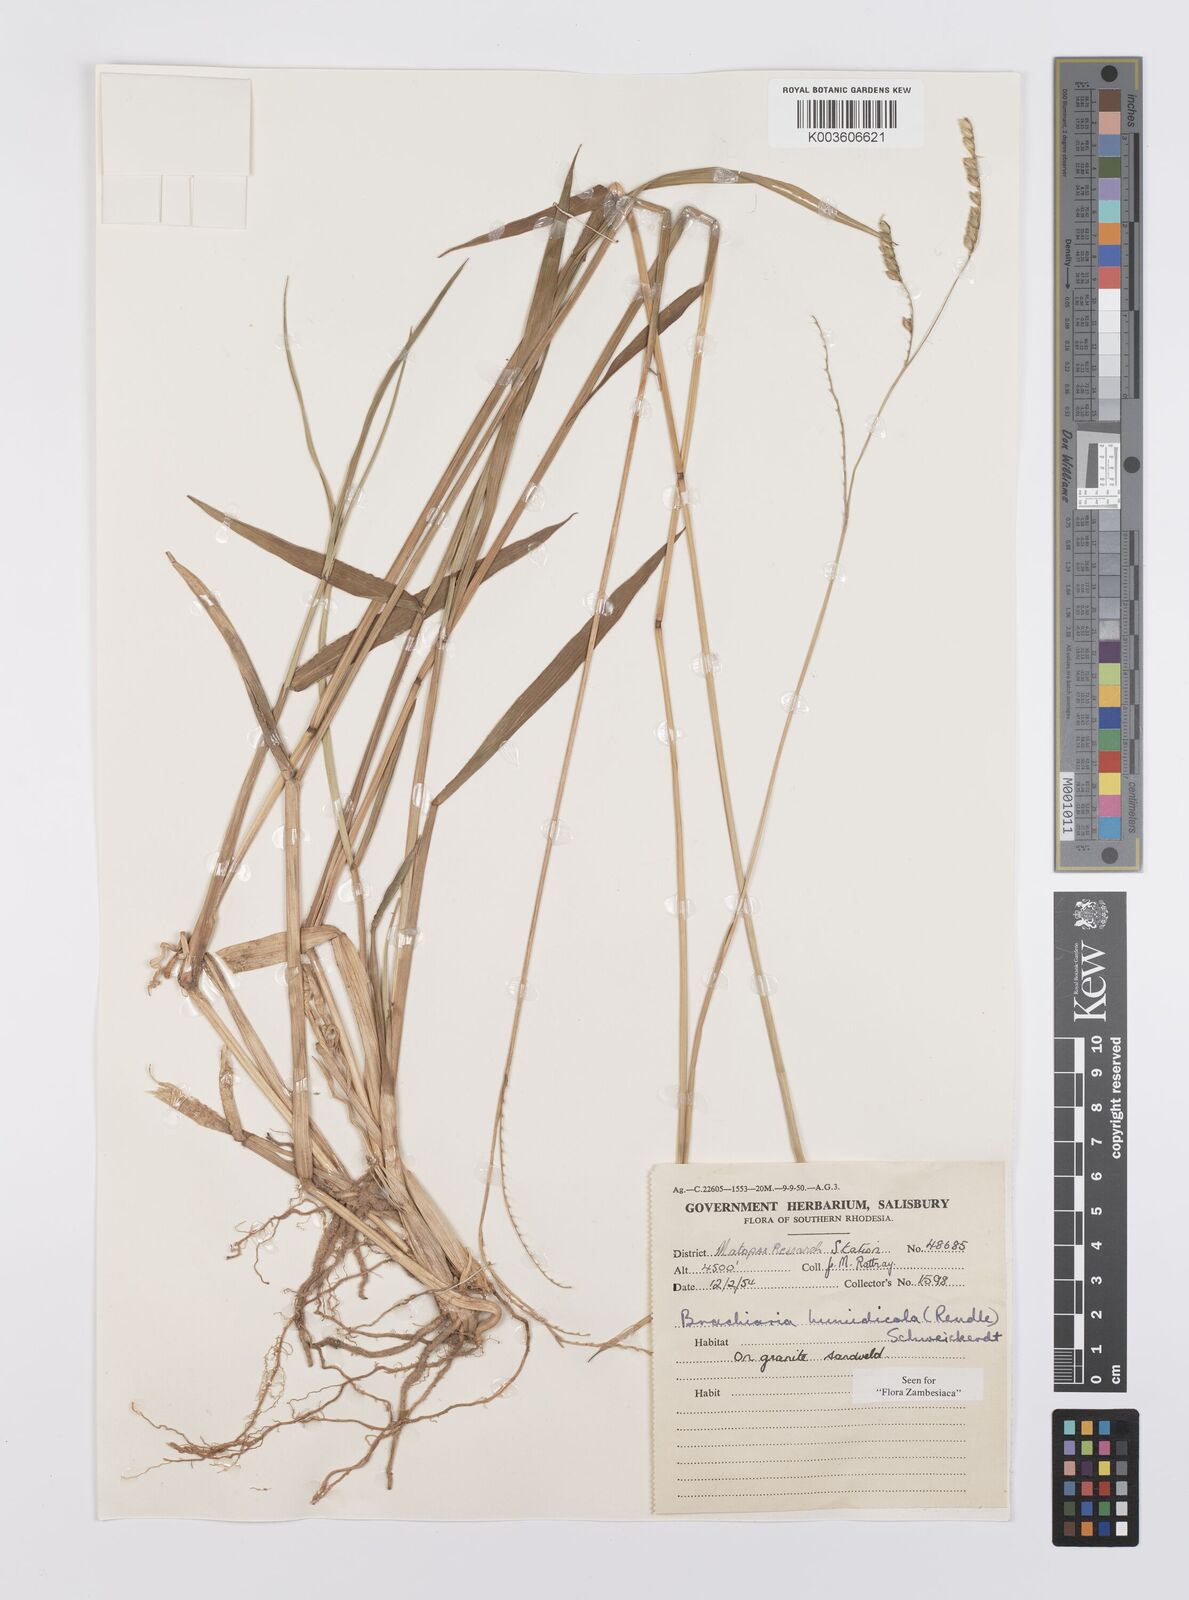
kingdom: Plantae
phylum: Tracheophyta
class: Liliopsida
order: Poales
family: Poaceae
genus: Urochloa
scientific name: Urochloa dictyoneura
